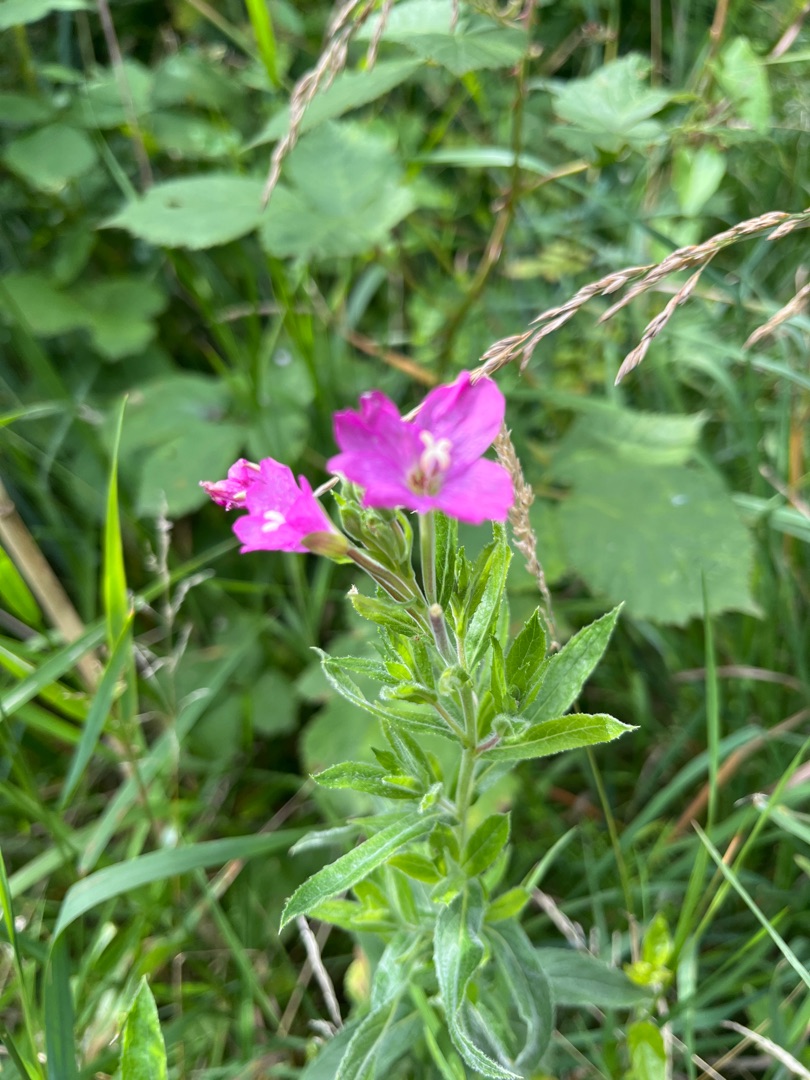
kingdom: Plantae
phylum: Tracheophyta
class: Magnoliopsida
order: Myrtales
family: Onagraceae
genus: Epilobium
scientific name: Epilobium hirsutum
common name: Lådden dueurt
